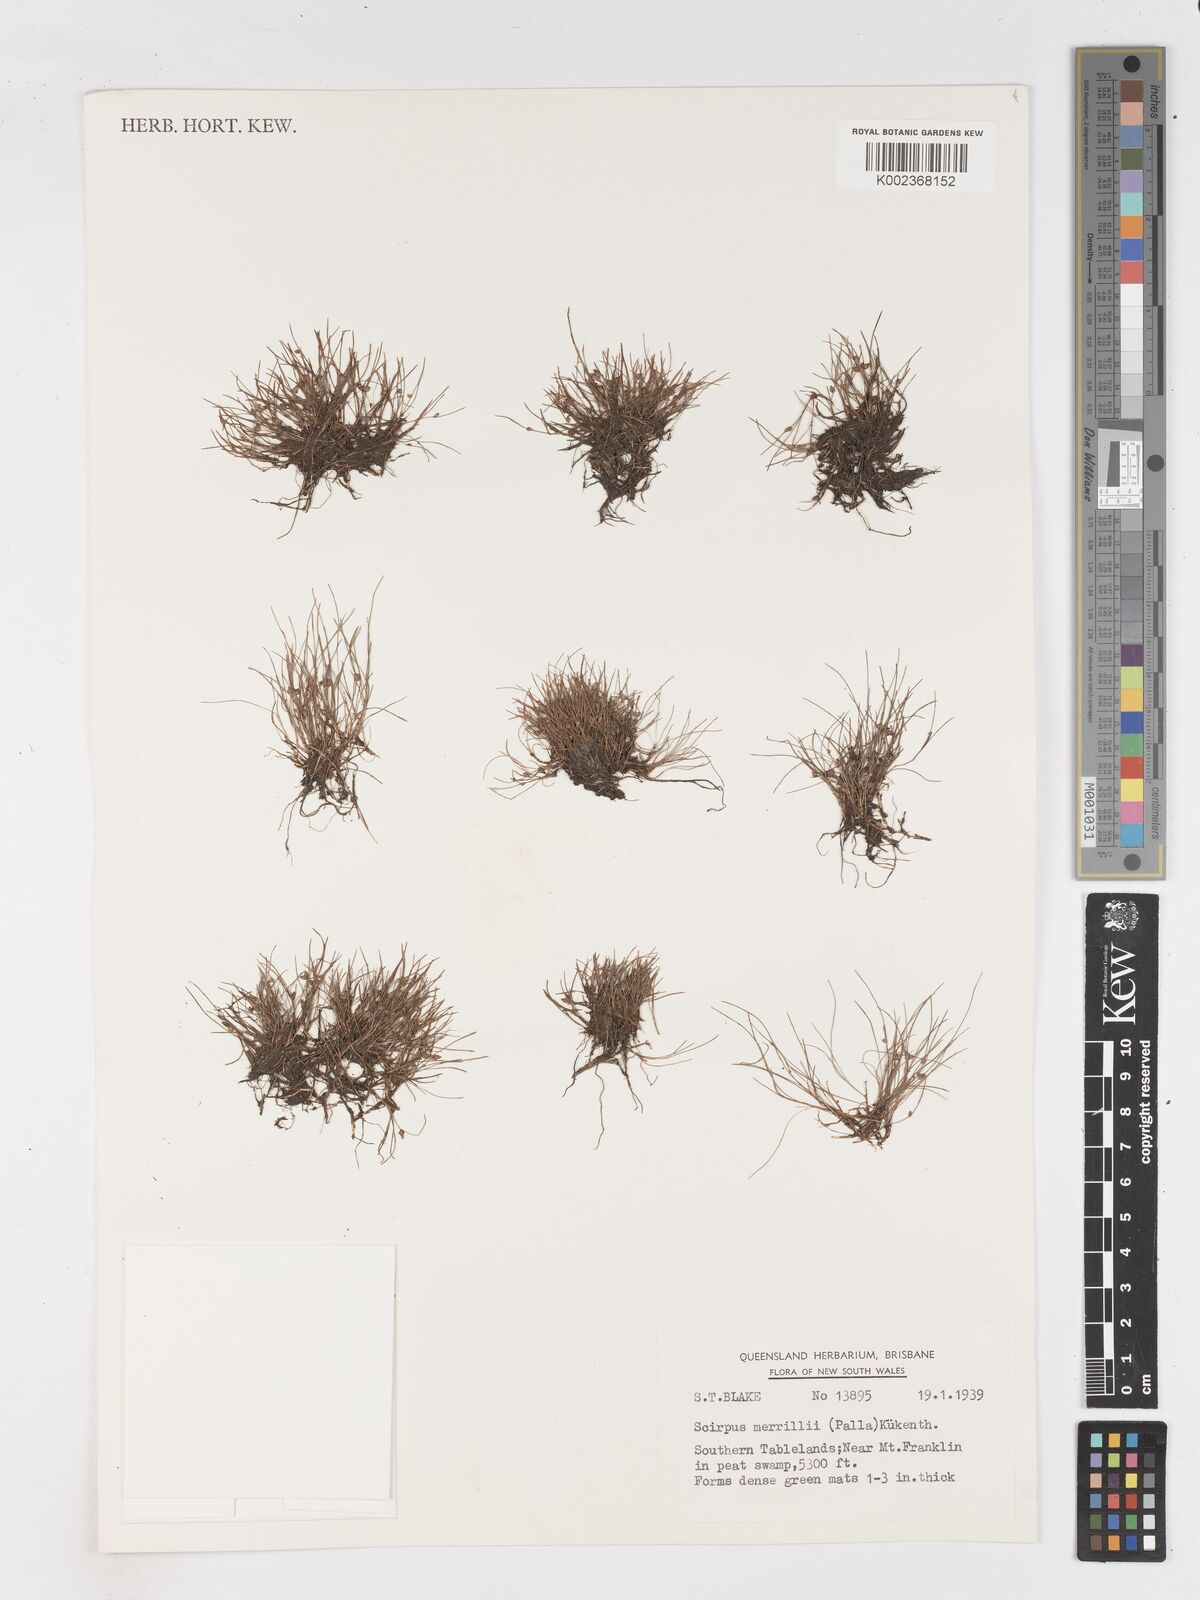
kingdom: Plantae
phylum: Tracheophyta
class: Liliopsida
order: Poales
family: Cyperaceae
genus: Isolepis
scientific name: Isolepis subtilissima
